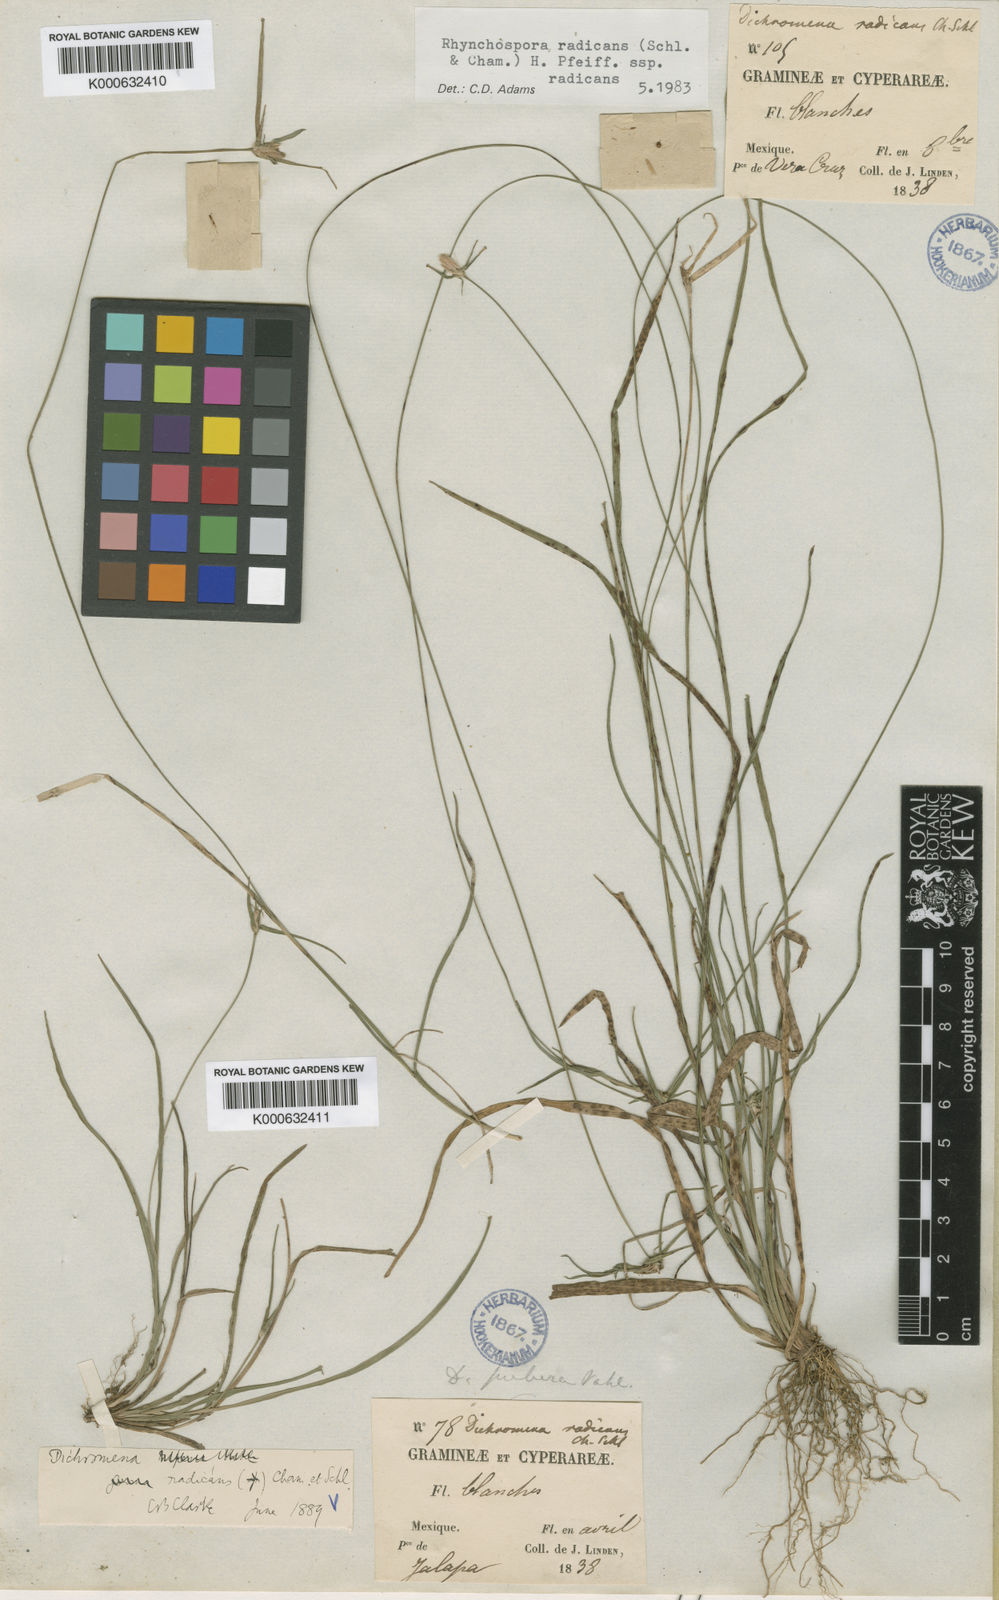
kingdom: Plantae
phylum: Tracheophyta
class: Liliopsida
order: Poales
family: Cyperaceae
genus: Rhynchospora
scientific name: Rhynchospora radicans
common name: Tropical whitetop
